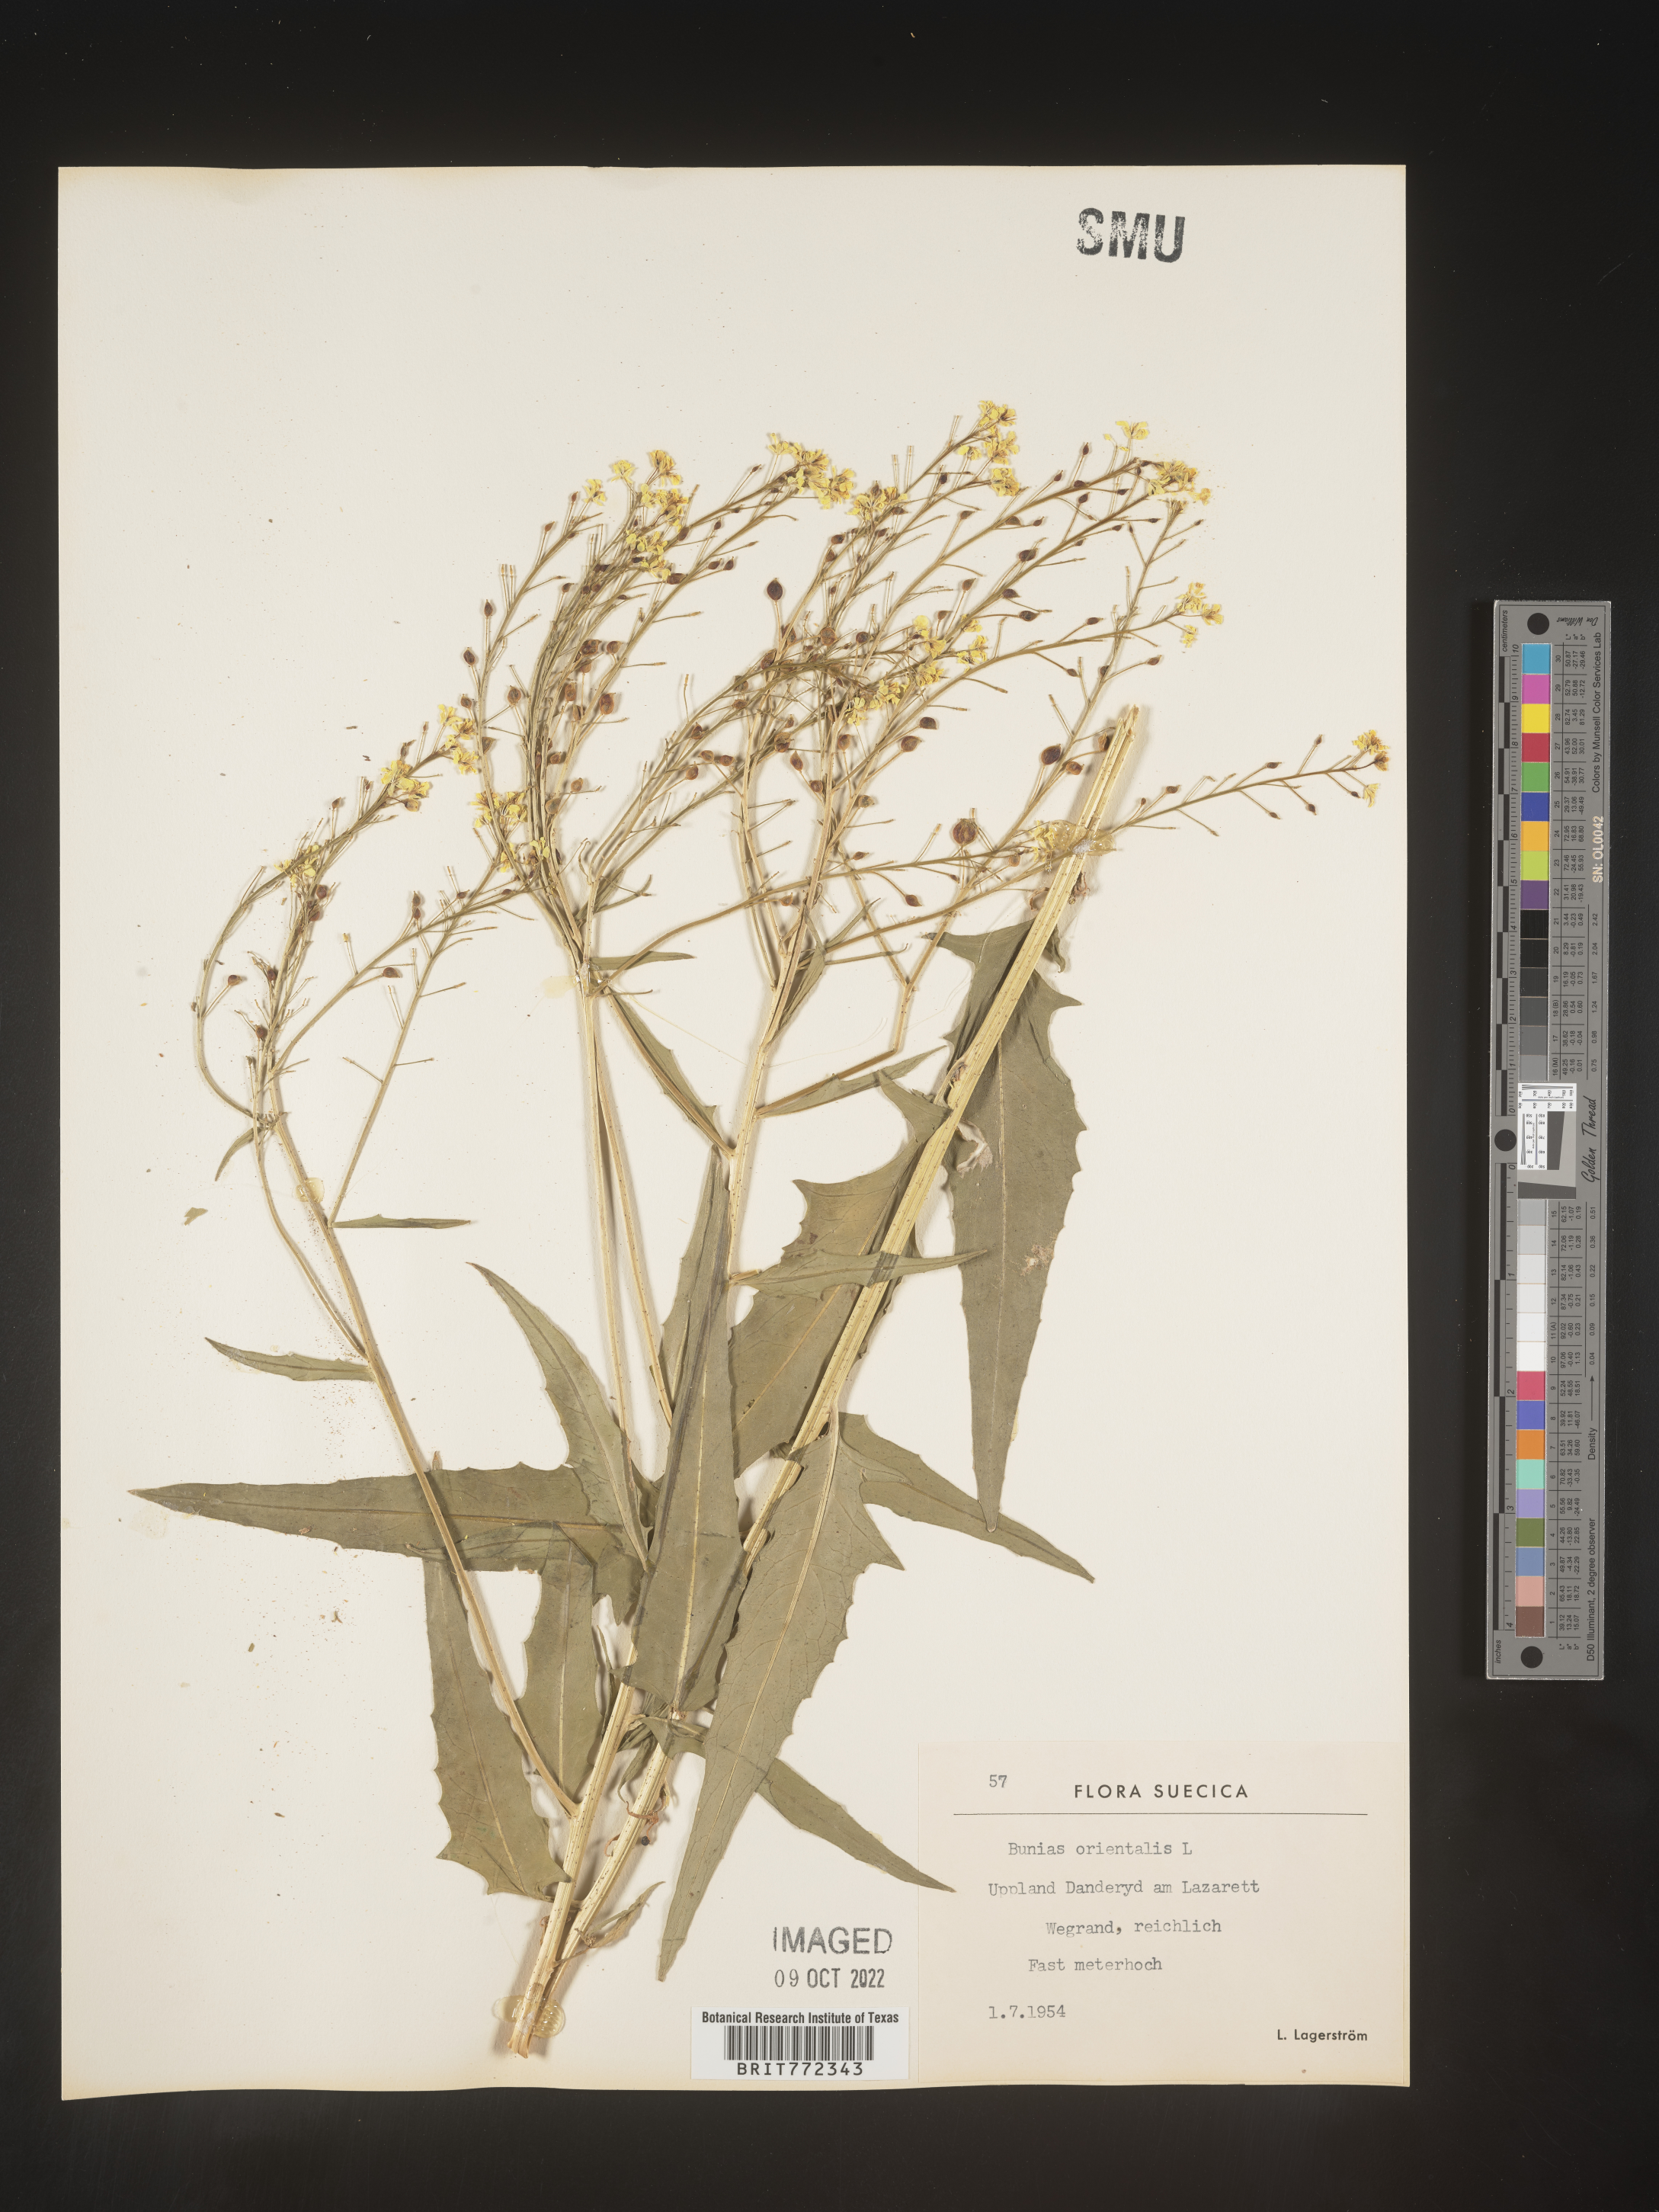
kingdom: Plantae
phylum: Tracheophyta
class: Magnoliopsida
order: Brassicales
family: Brassicaceae
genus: Bunias
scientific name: Bunias
